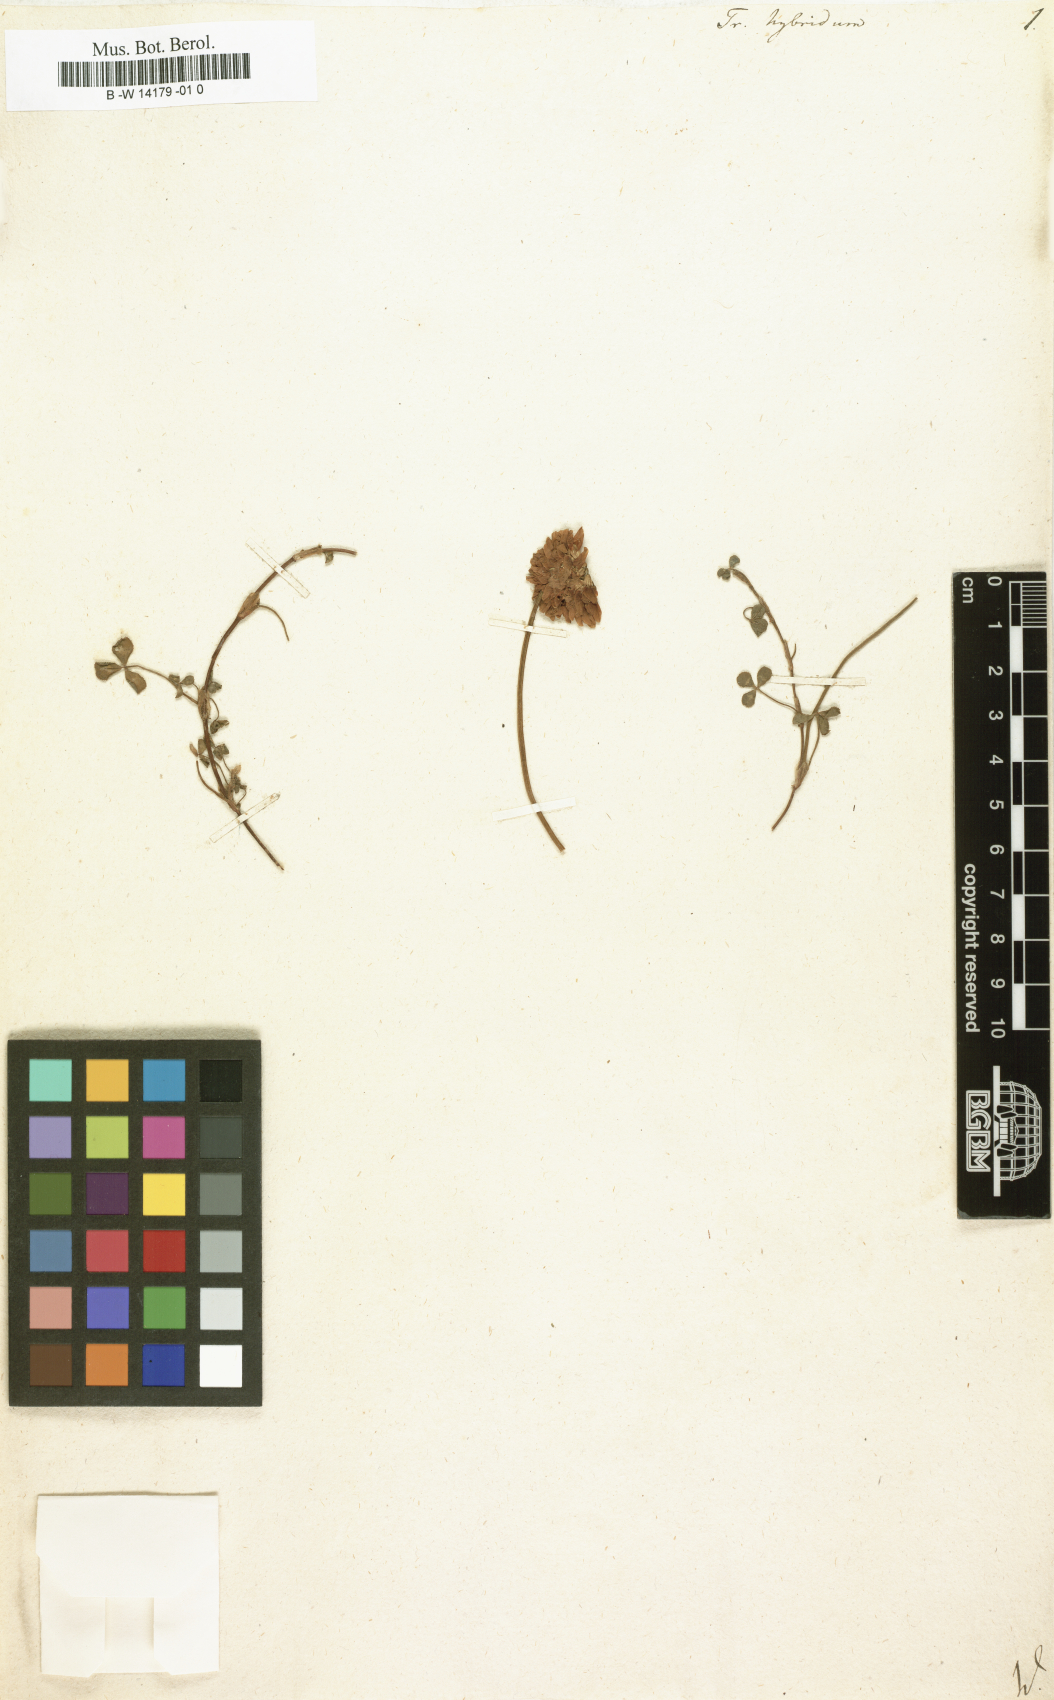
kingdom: Plantae
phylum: Tracheophyta
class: Magnoliopsida
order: Fabales
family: Fabaceae
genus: Trifolium
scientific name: Trifolium hybridum
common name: Alsike clover
